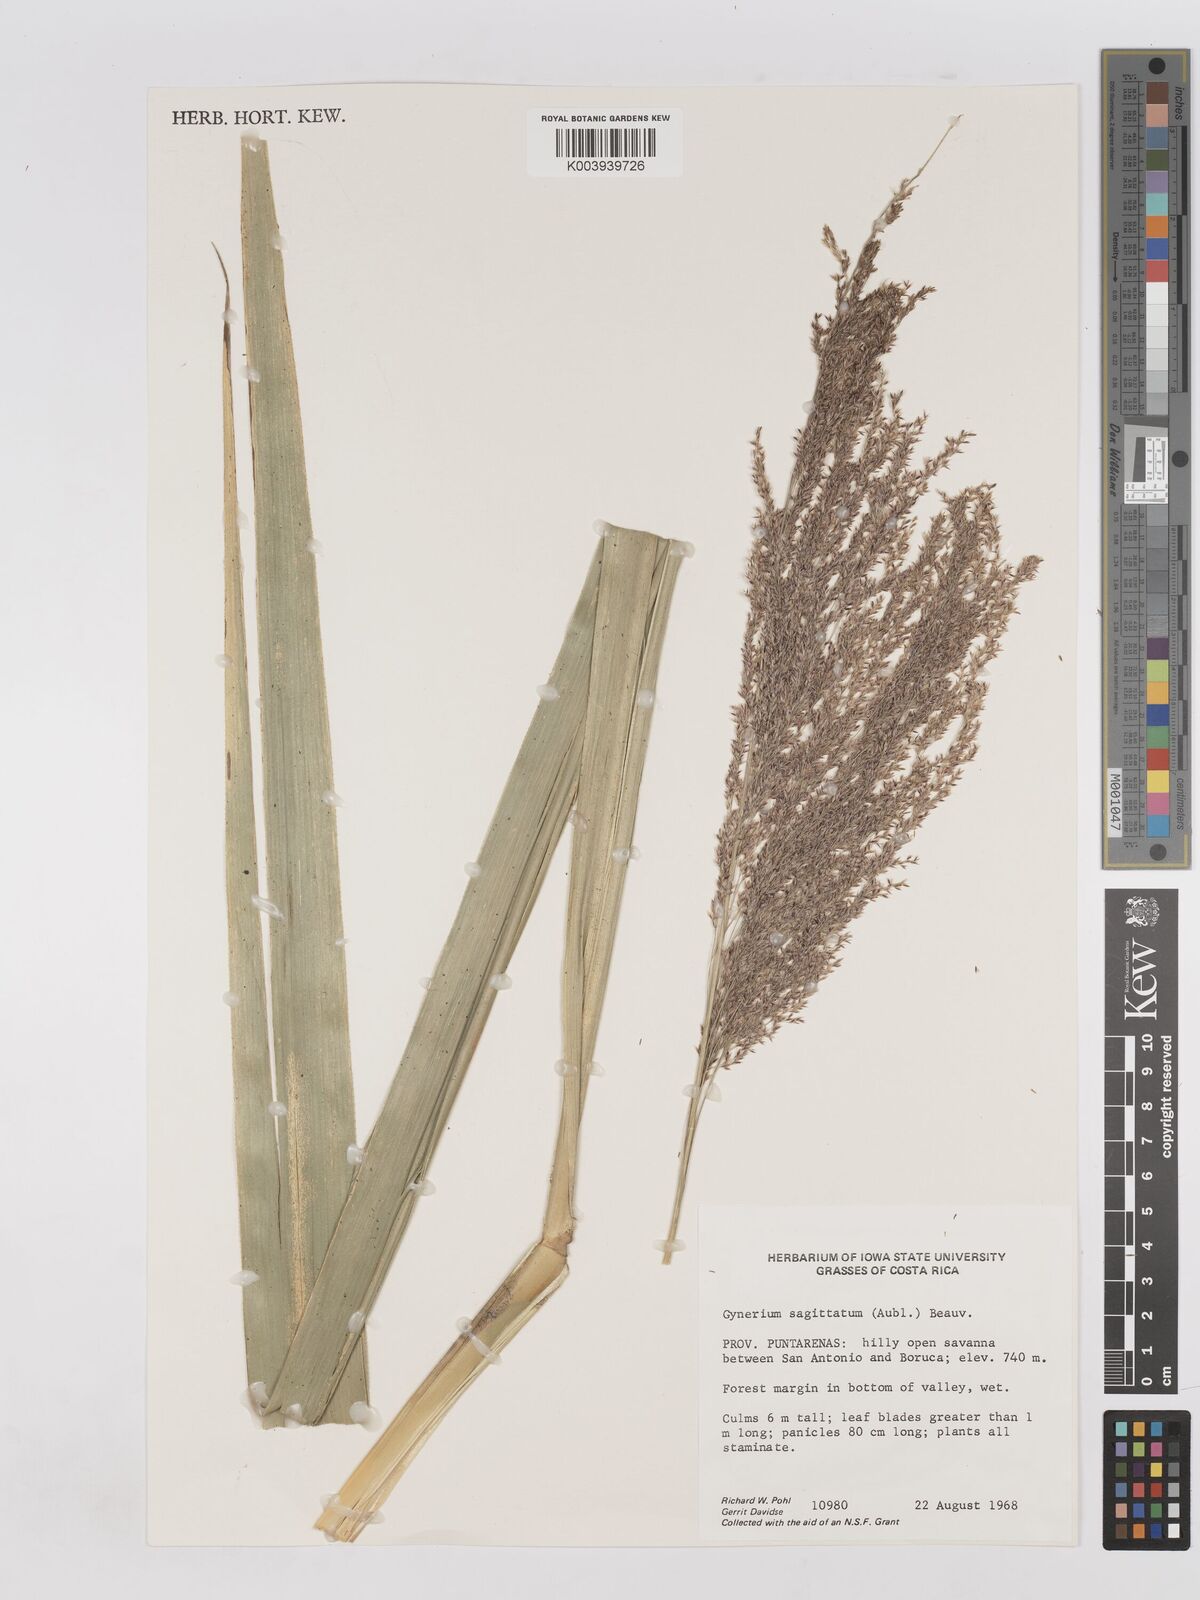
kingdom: Plantae
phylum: Tracheophyta
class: Liliopsida
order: Poales
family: Poaceae
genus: Gynerium
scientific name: Gynerium sagittatum
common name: Wild cane
